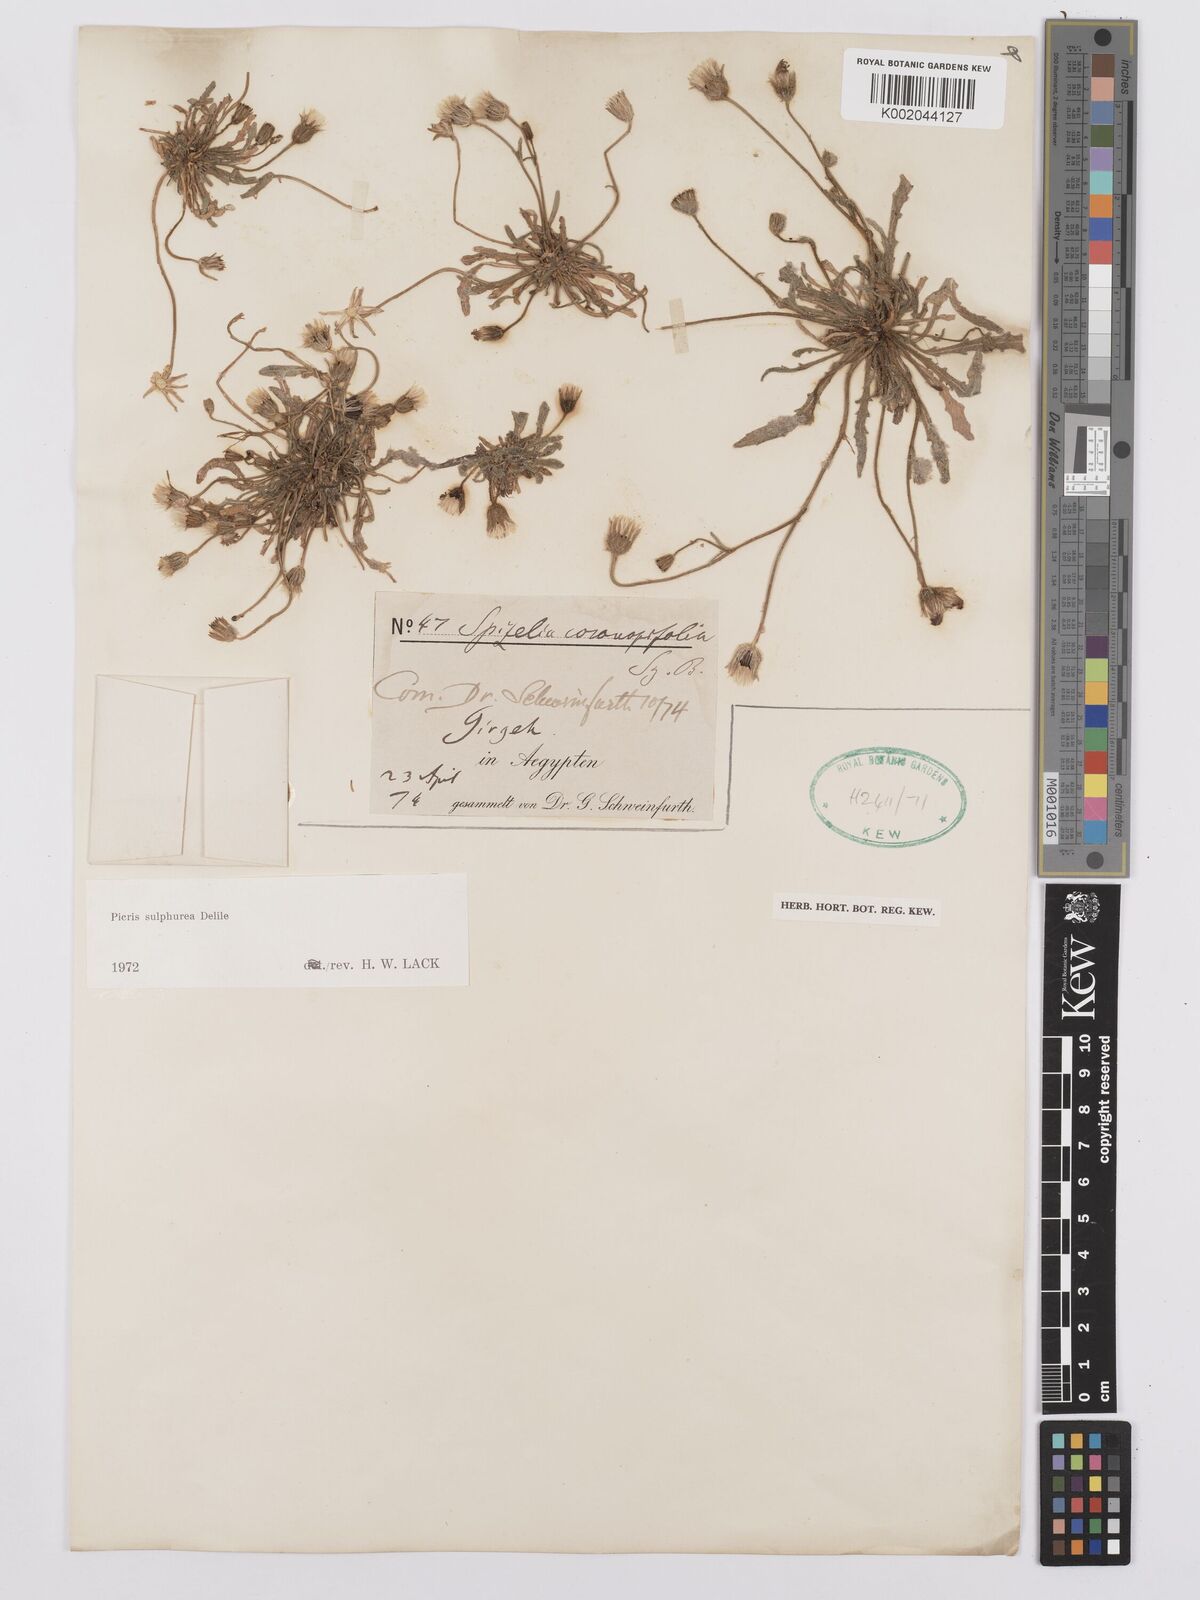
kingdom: Plantae
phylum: Tracheophyta
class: Magnoliopsida
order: Asterales
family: Asteraceae
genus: Picris
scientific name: Picris sulphurea
